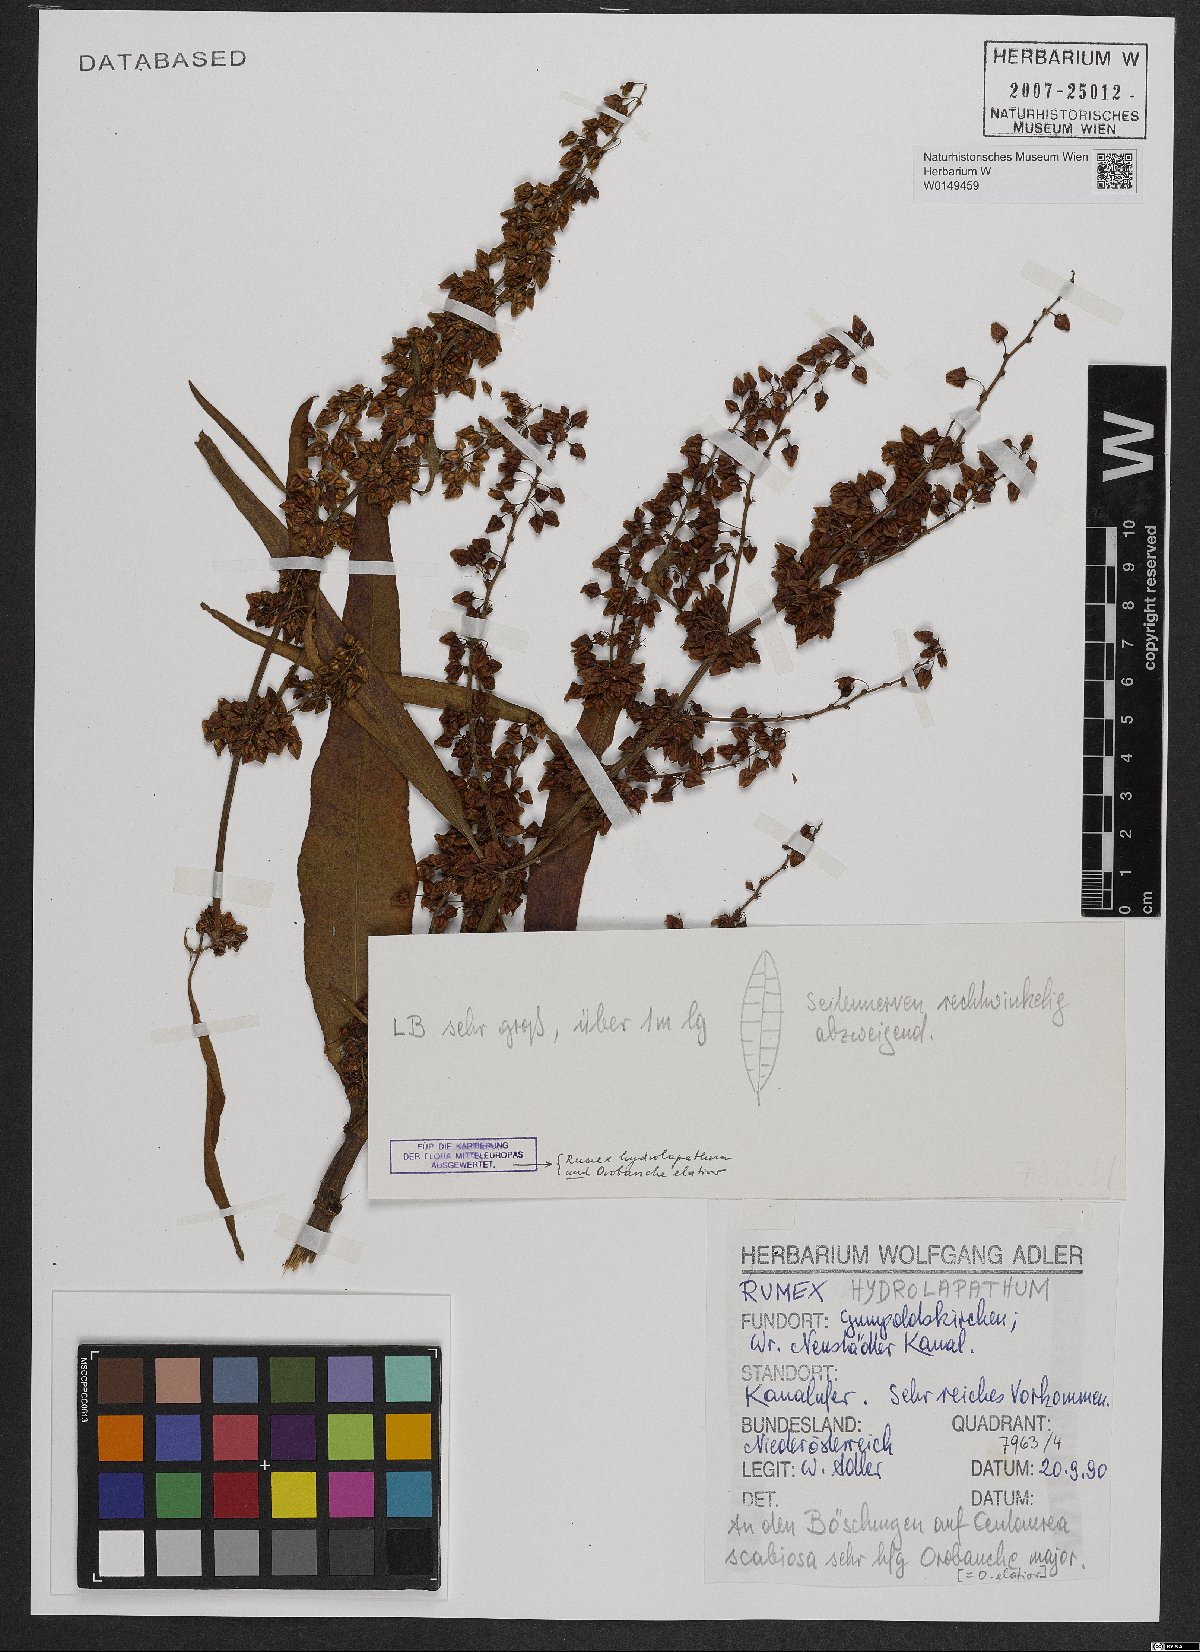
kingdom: Plantae
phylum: Tracheophyta
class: Magnoliopsida
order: Caryophyllales
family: Polygonaceae
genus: Rumex
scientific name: Rumex hydrolapathum
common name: Water dock
